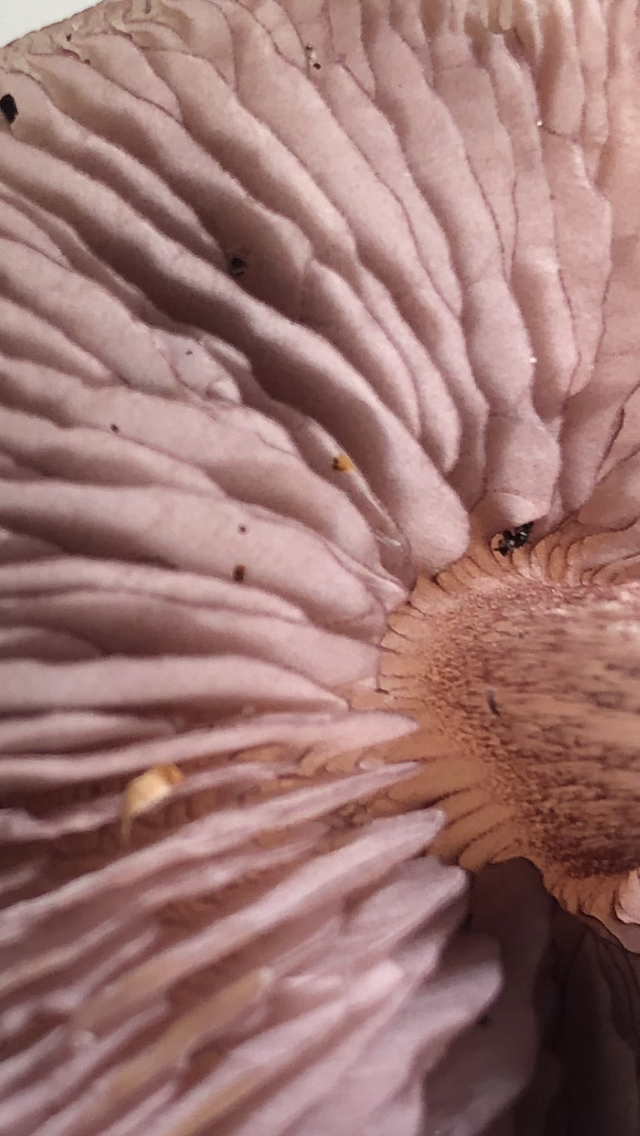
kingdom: Fungi
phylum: Basidiomycota
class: Agaricomycetes
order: Agaricales
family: Mycenaceae
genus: Mycena
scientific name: Mycena pelianthina
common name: mørkbladet huesvamp
